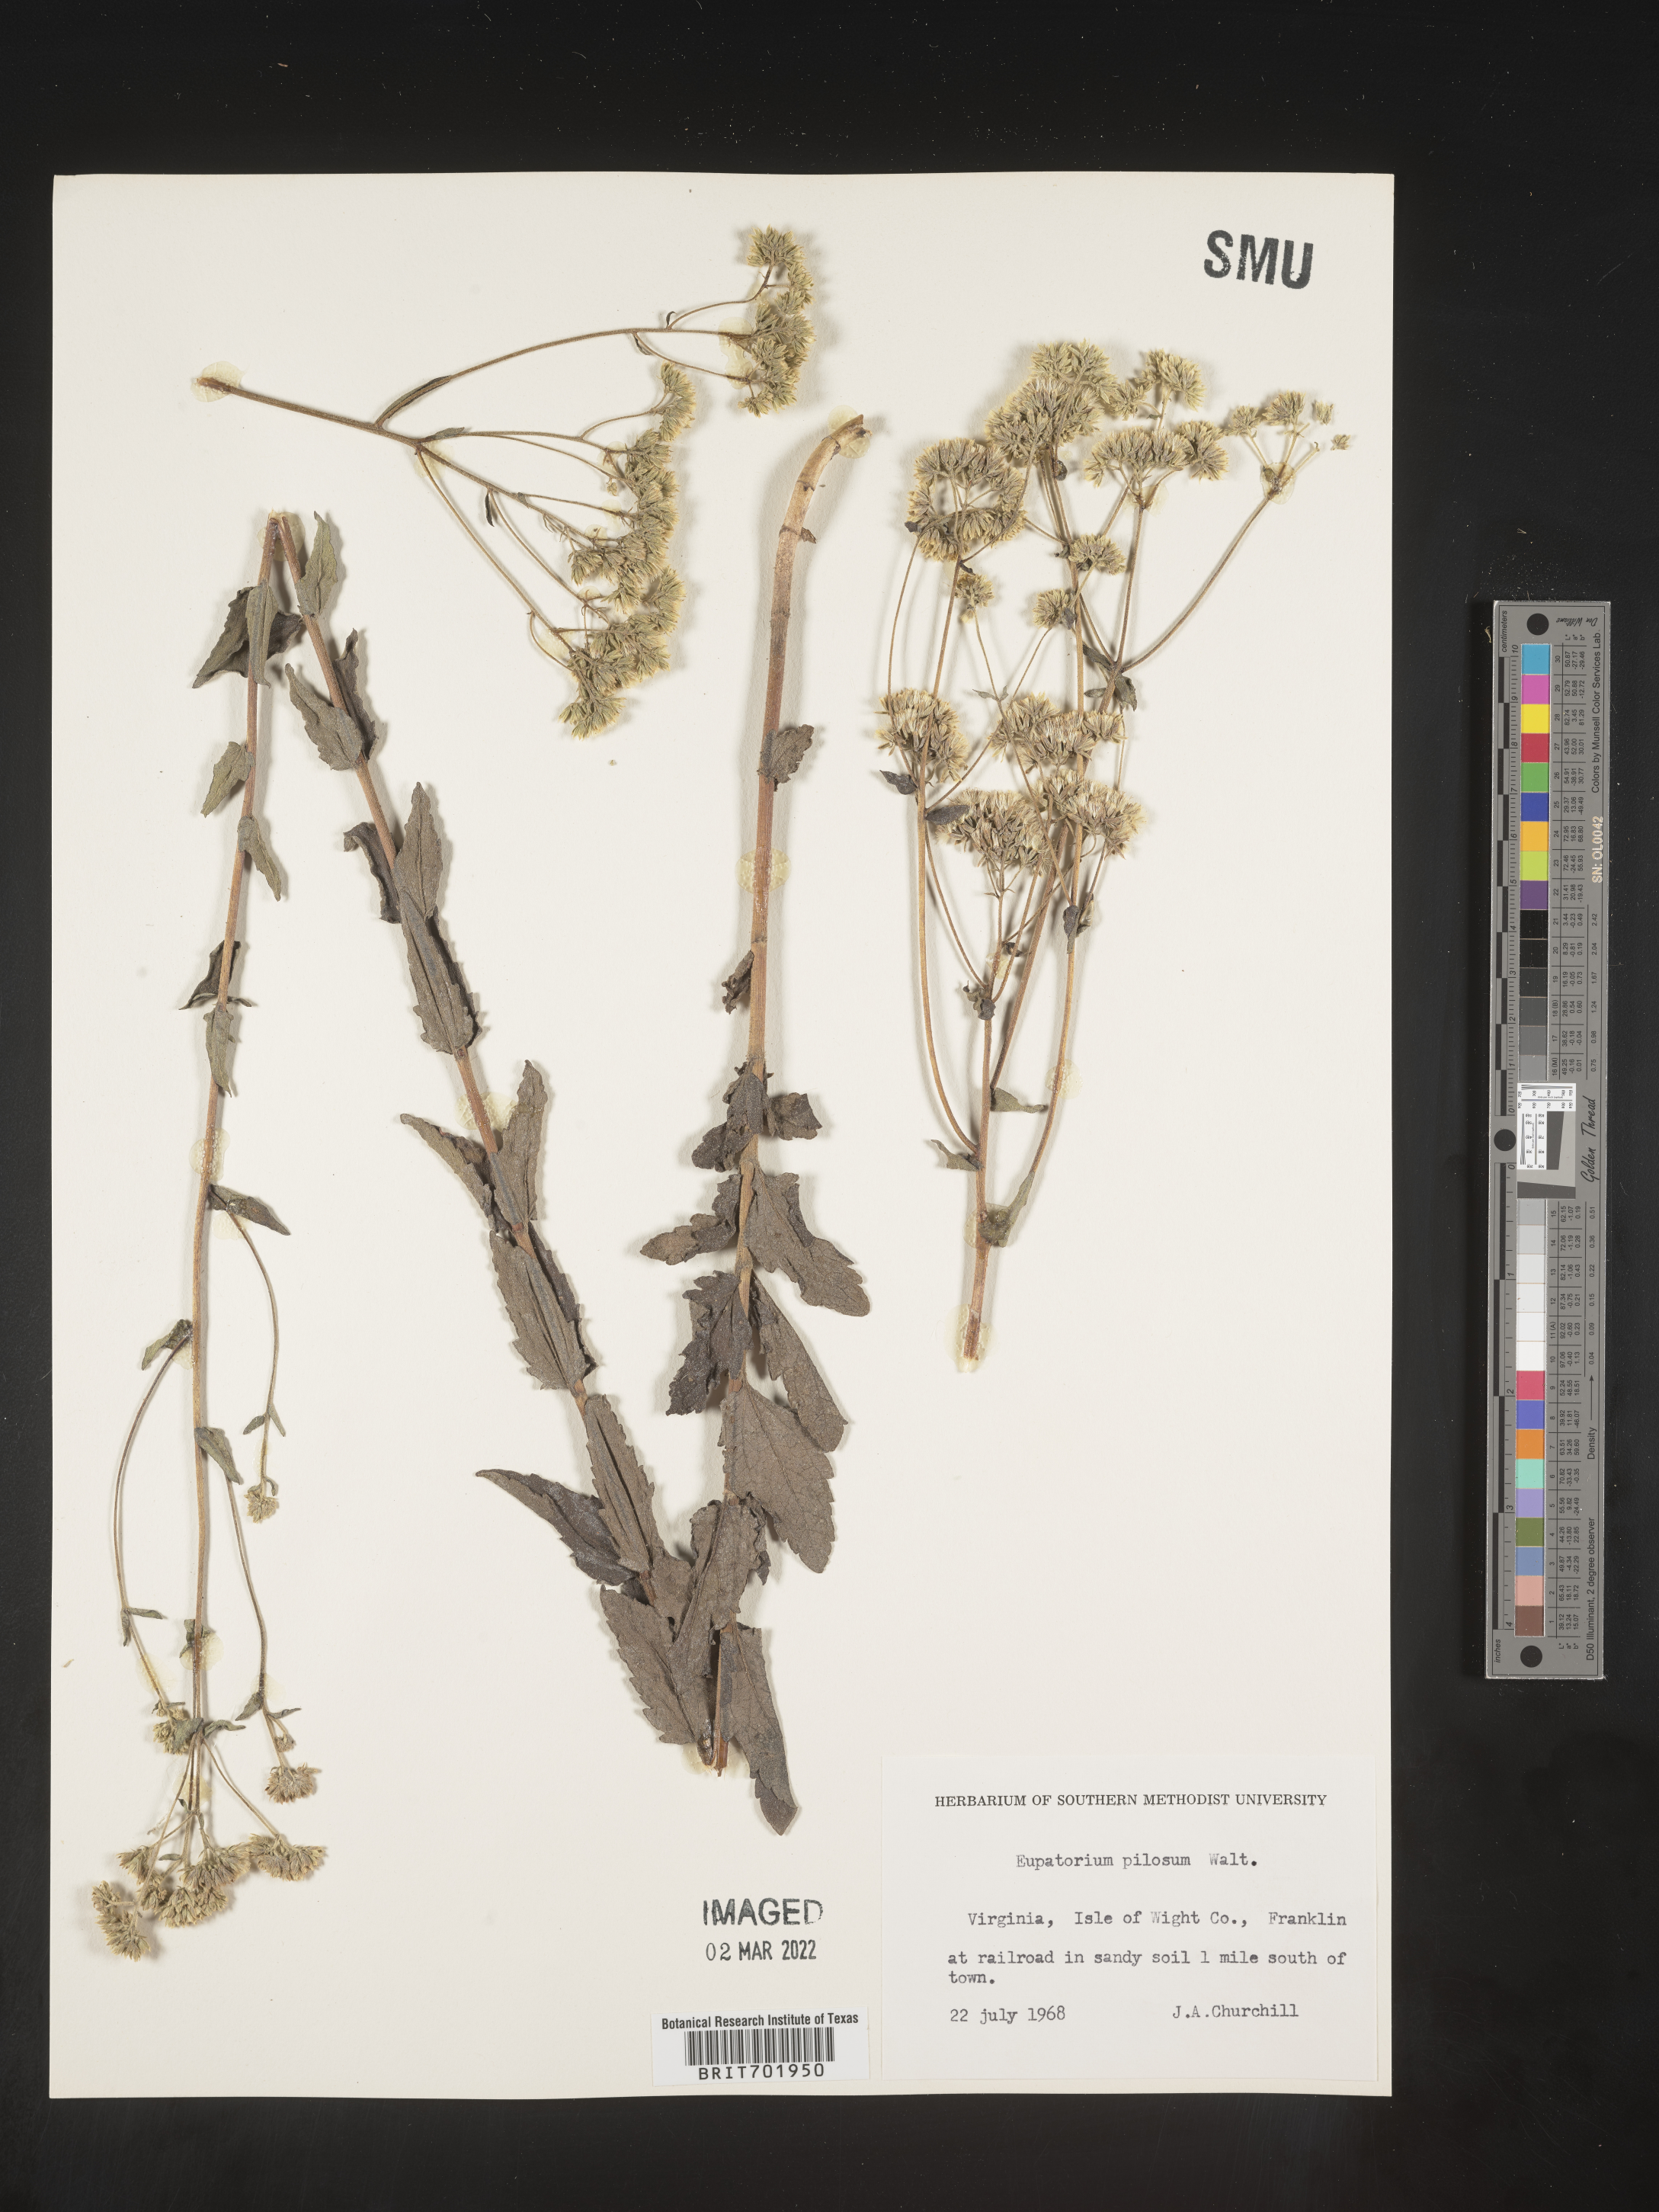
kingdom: Plantae
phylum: Tracheophyta
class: Magnoliopsida
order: Asterales
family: Asteraceae
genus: Eupatorium
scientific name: Eupatorium pilosum
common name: Rough boneset
